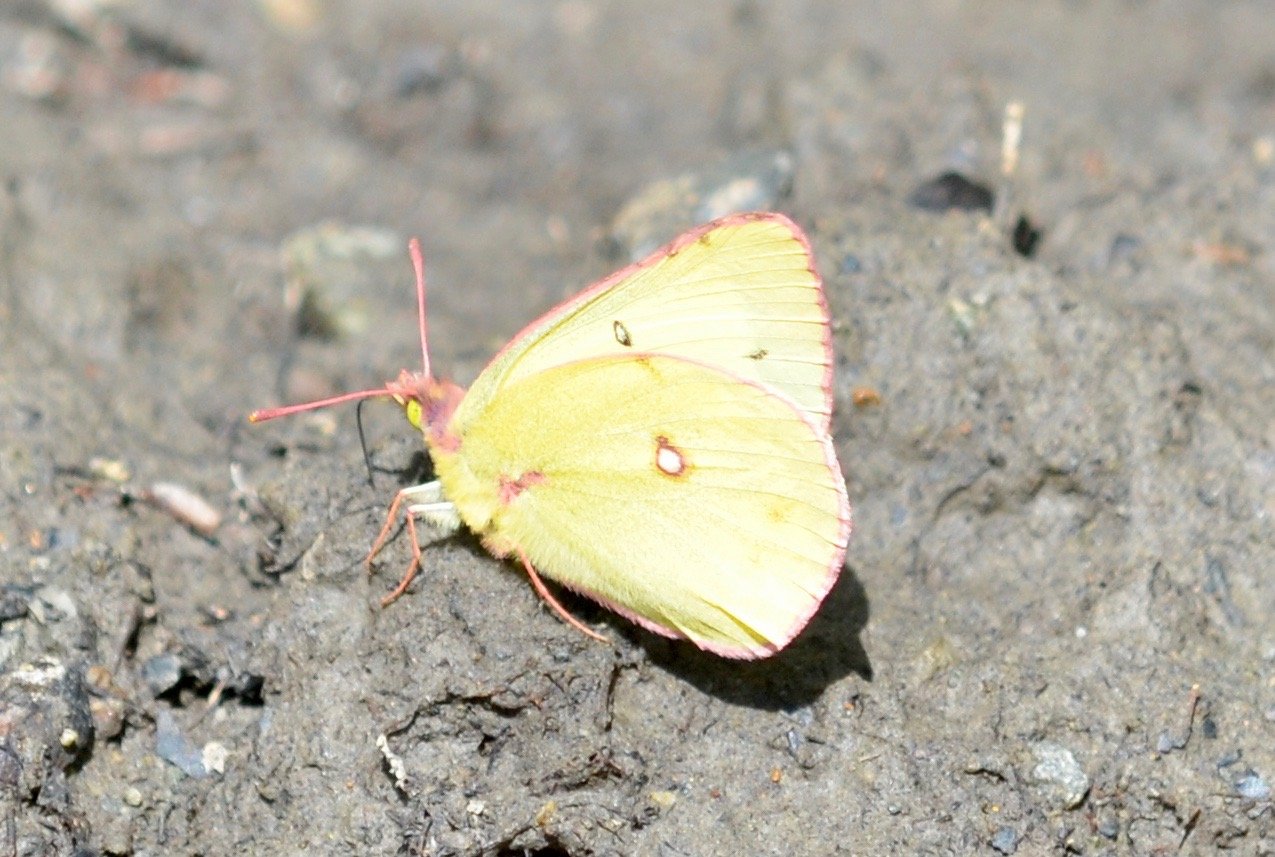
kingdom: Animalia
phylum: Arthropoda
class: Insecta
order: Lepidoptera
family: Pieridae
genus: Colias
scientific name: Colias gigantea
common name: Giant Sulphur
